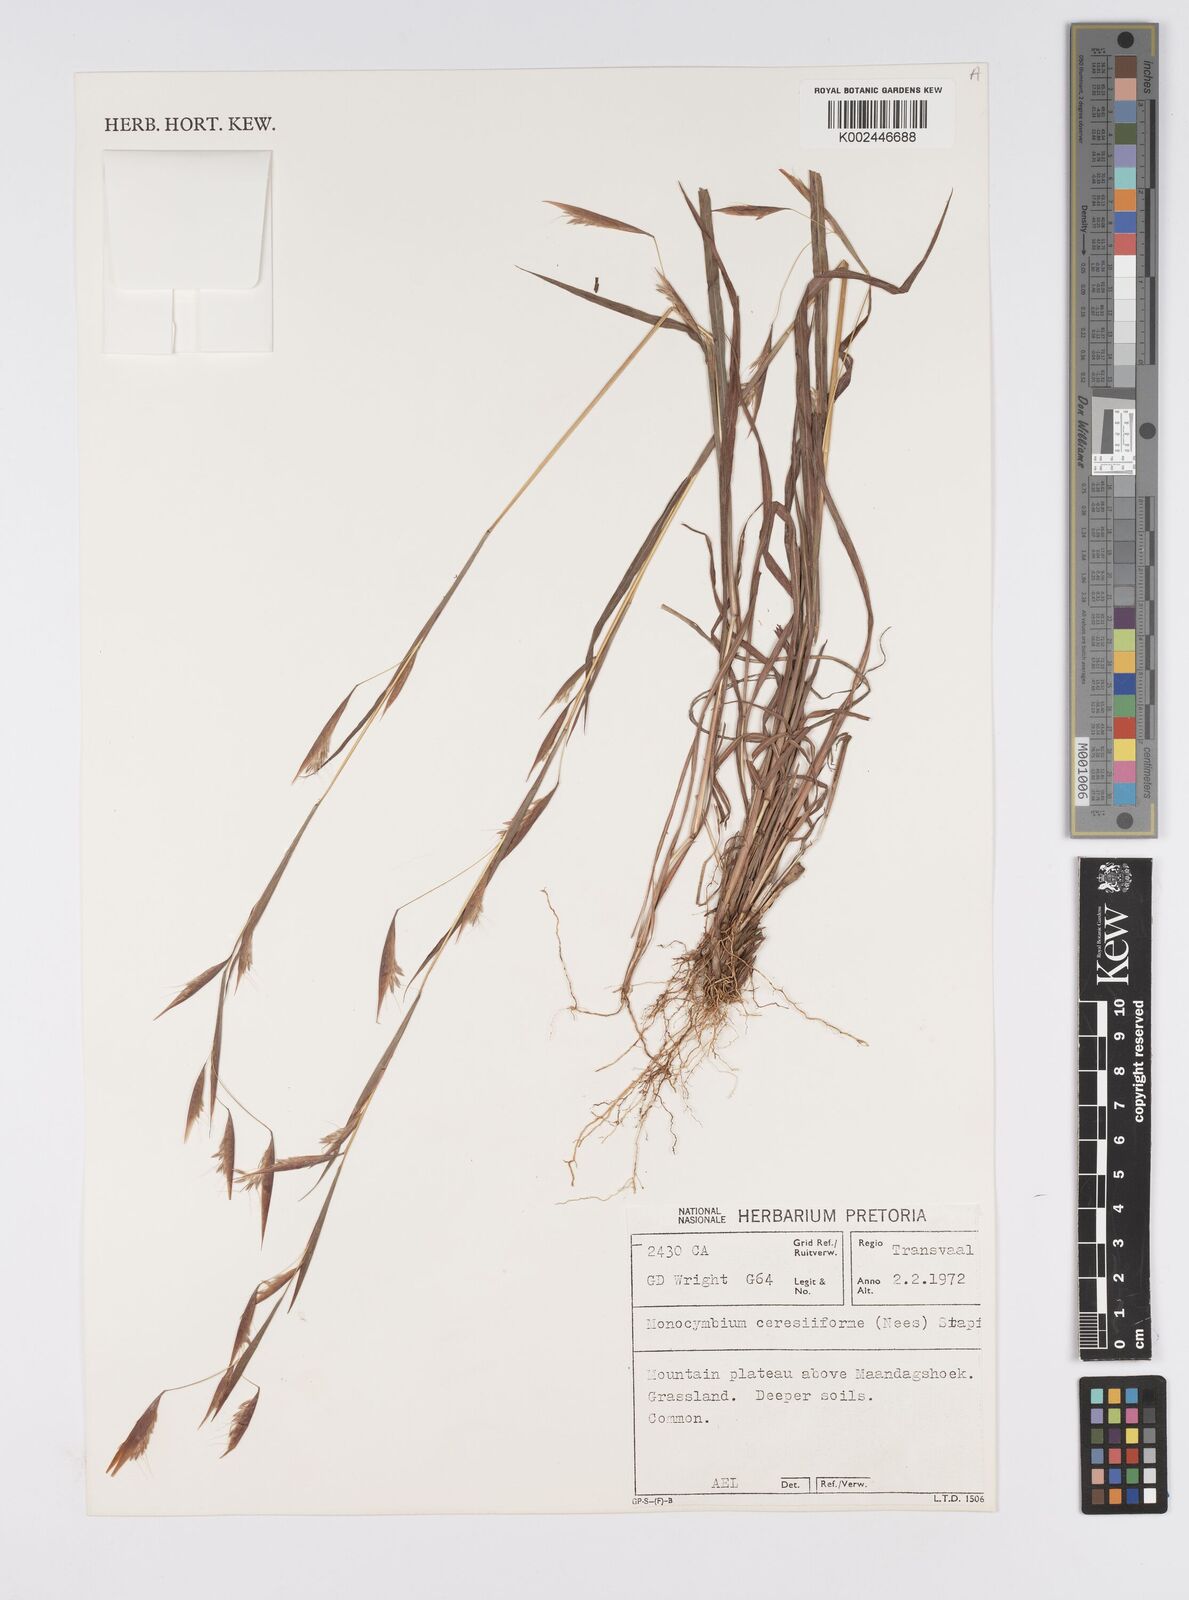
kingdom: Plantae
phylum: Tracheophyta
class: Liliopsida
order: Poales
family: Poaceae
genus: Monocymbium
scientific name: Monocymbium ceresiiforme
